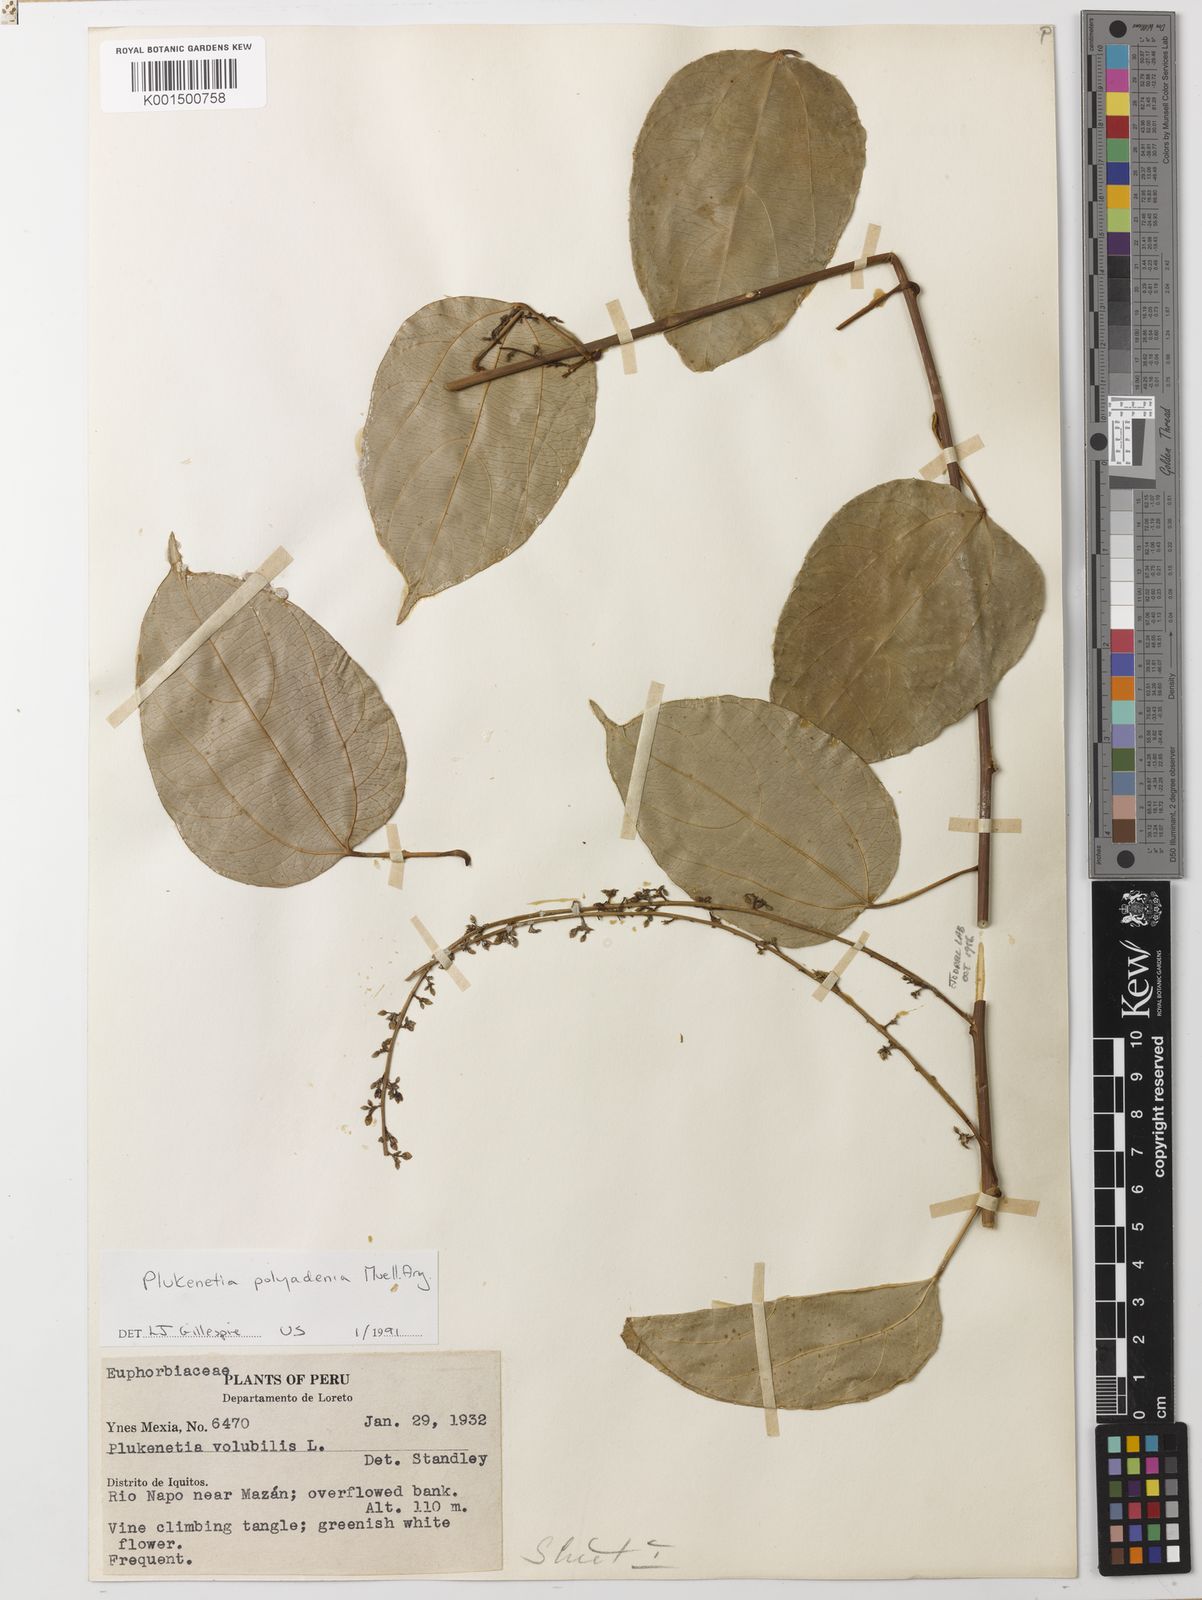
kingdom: Plantae
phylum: Tracheophyta
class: Magnoliopsida
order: Malpighiales
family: Euphorbiaceae
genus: Plukenetia
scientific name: Plukenetia polyadenia
